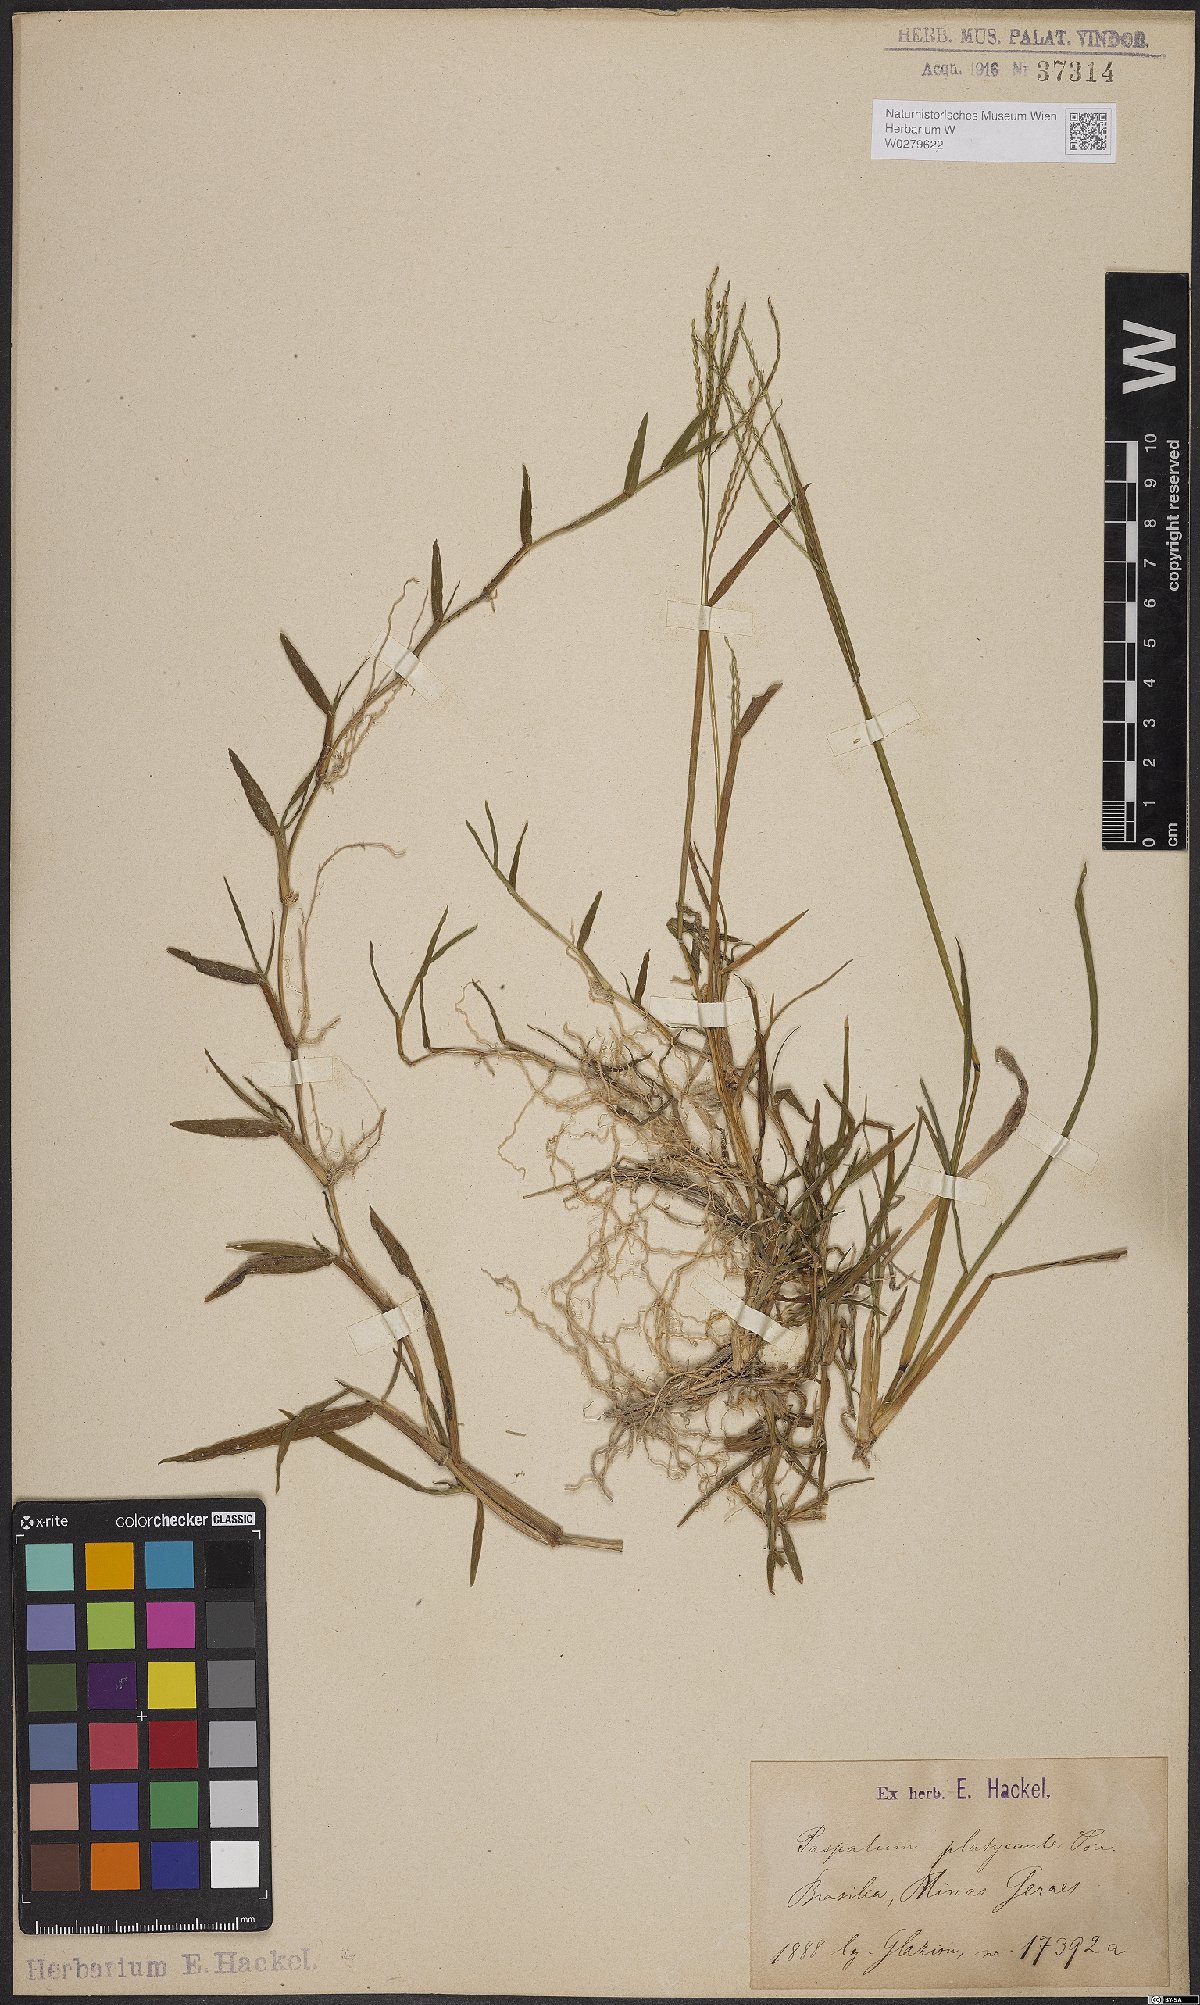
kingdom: Plantae
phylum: Tracheophyta
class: Liliopsida
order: Poales
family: Poaceae
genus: Axonopus
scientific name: Axonopus compressus
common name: American carpet grass
